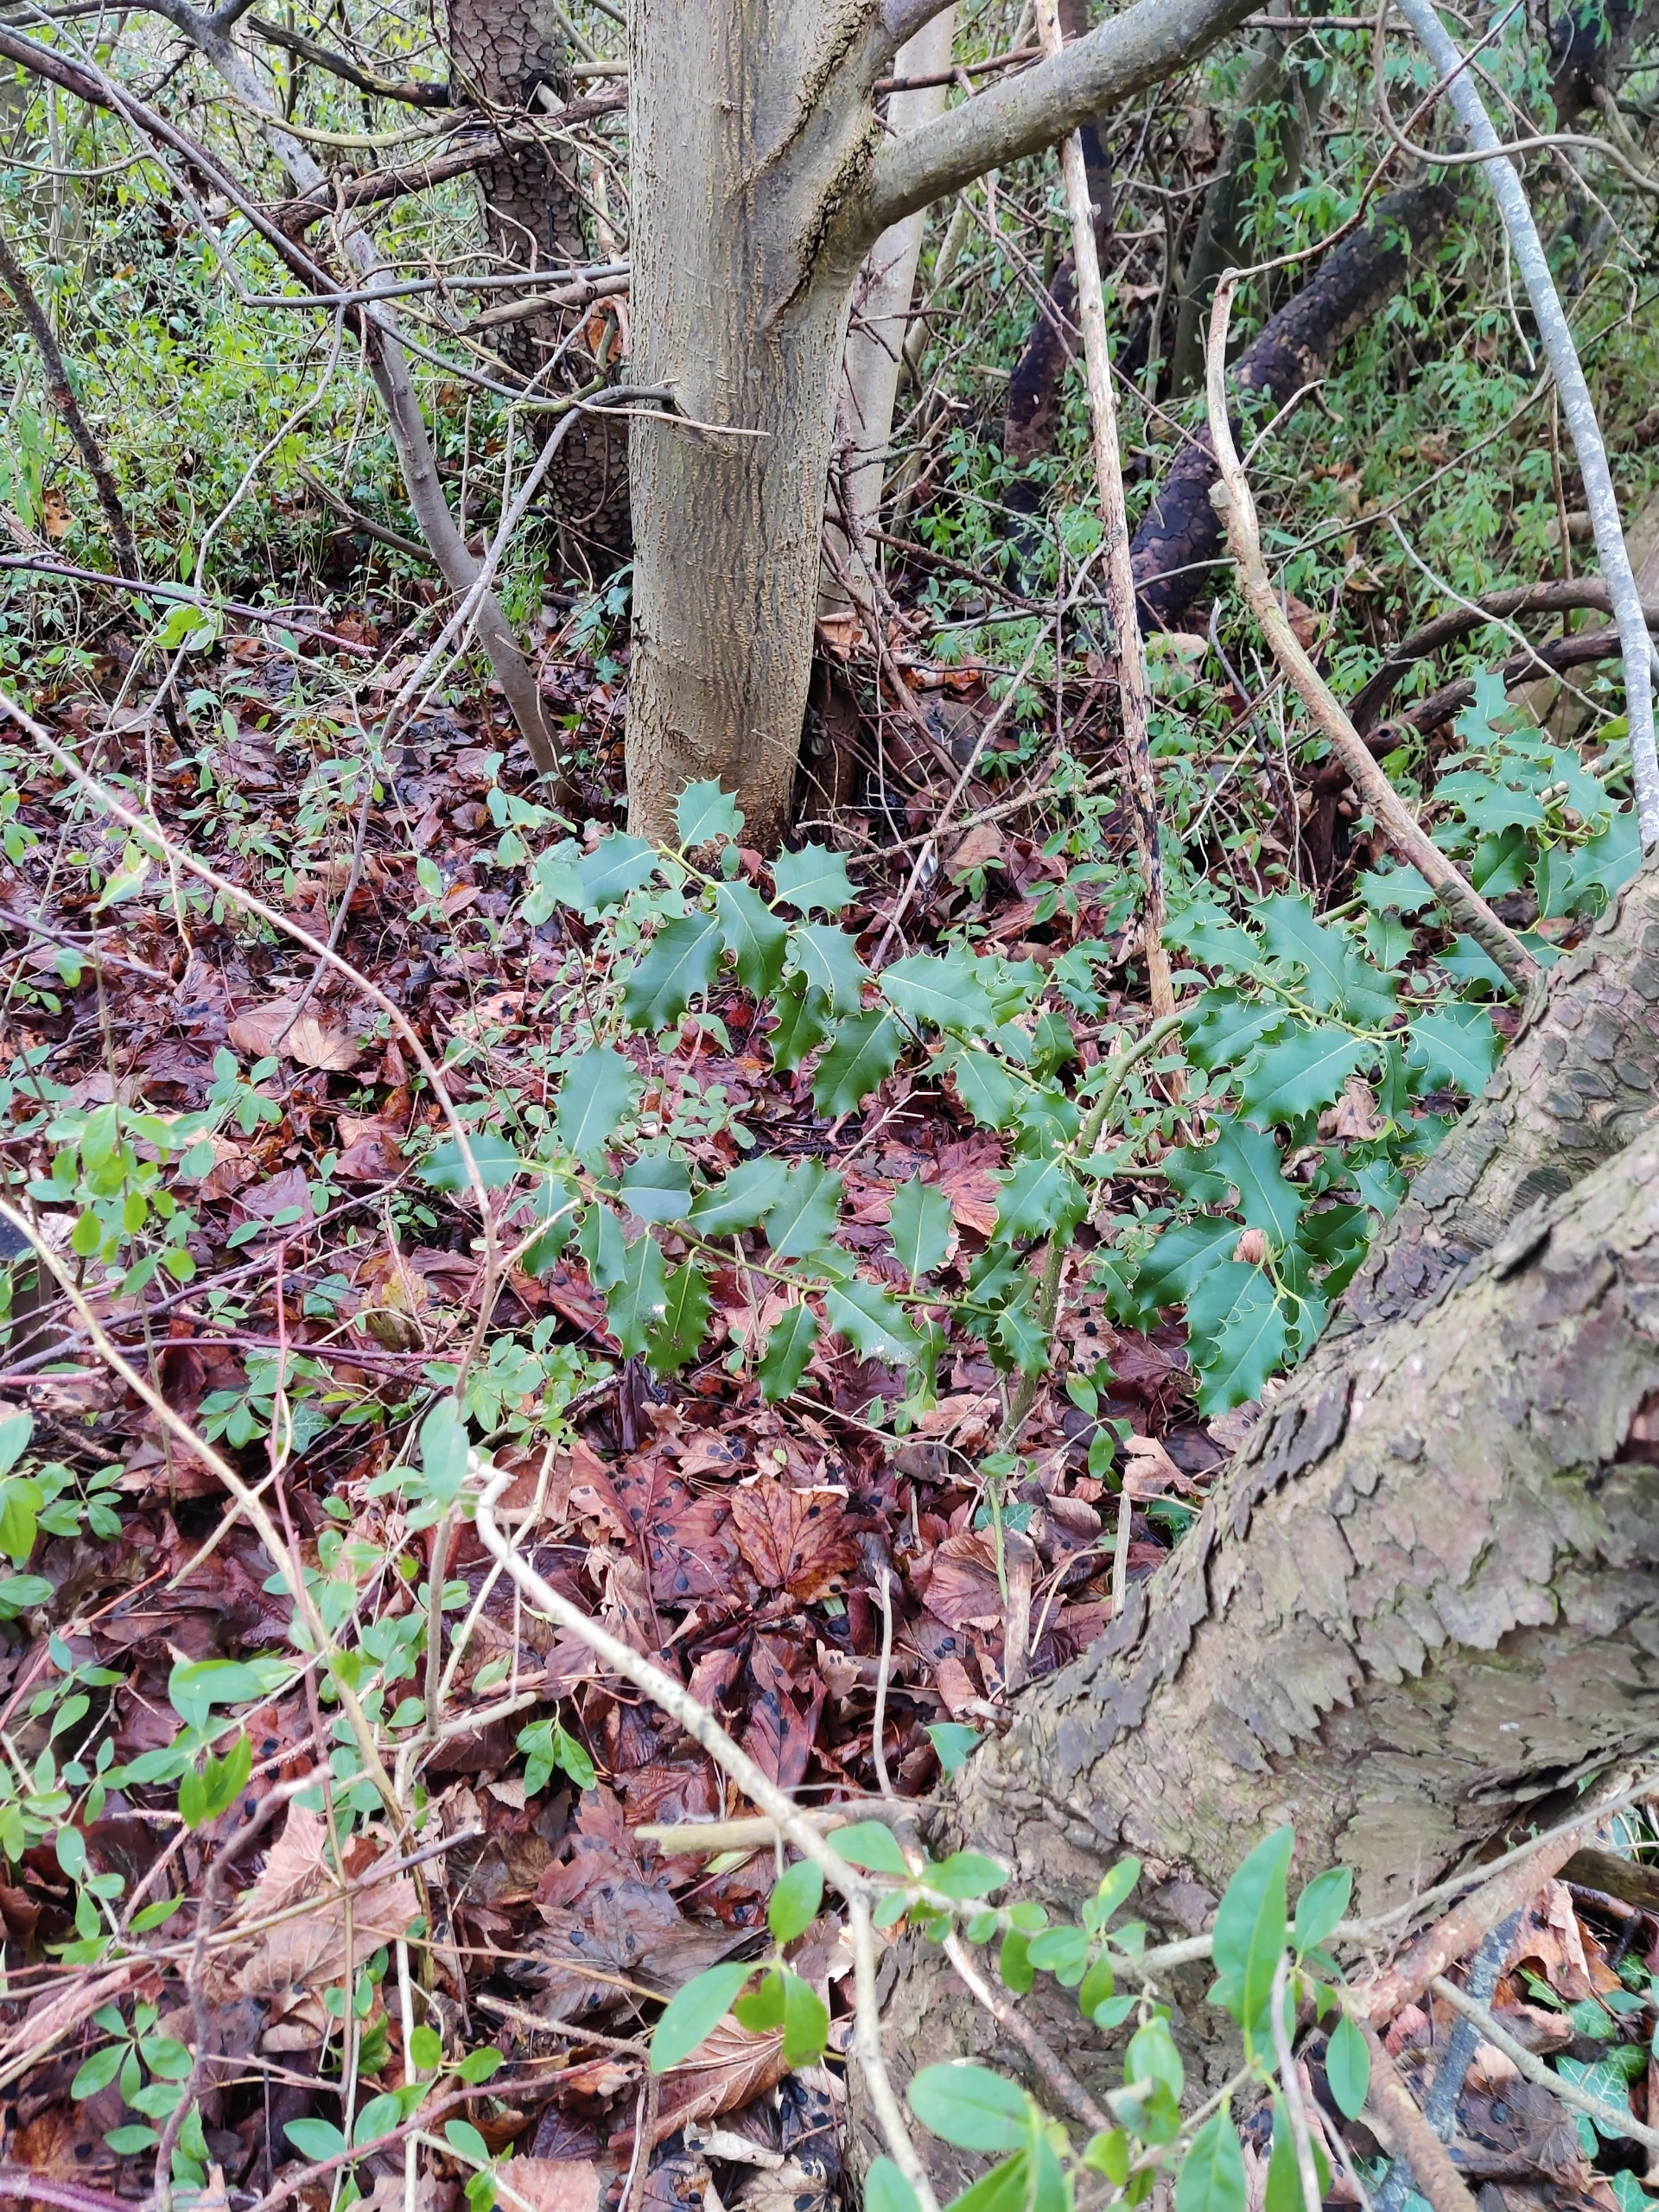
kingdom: Plantae
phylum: Tracheophyta
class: Magnoliopsida
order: Aquifoliales
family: Aquifoliaceae
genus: Ilex
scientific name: Ilex aquifolium
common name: Kristtorn
